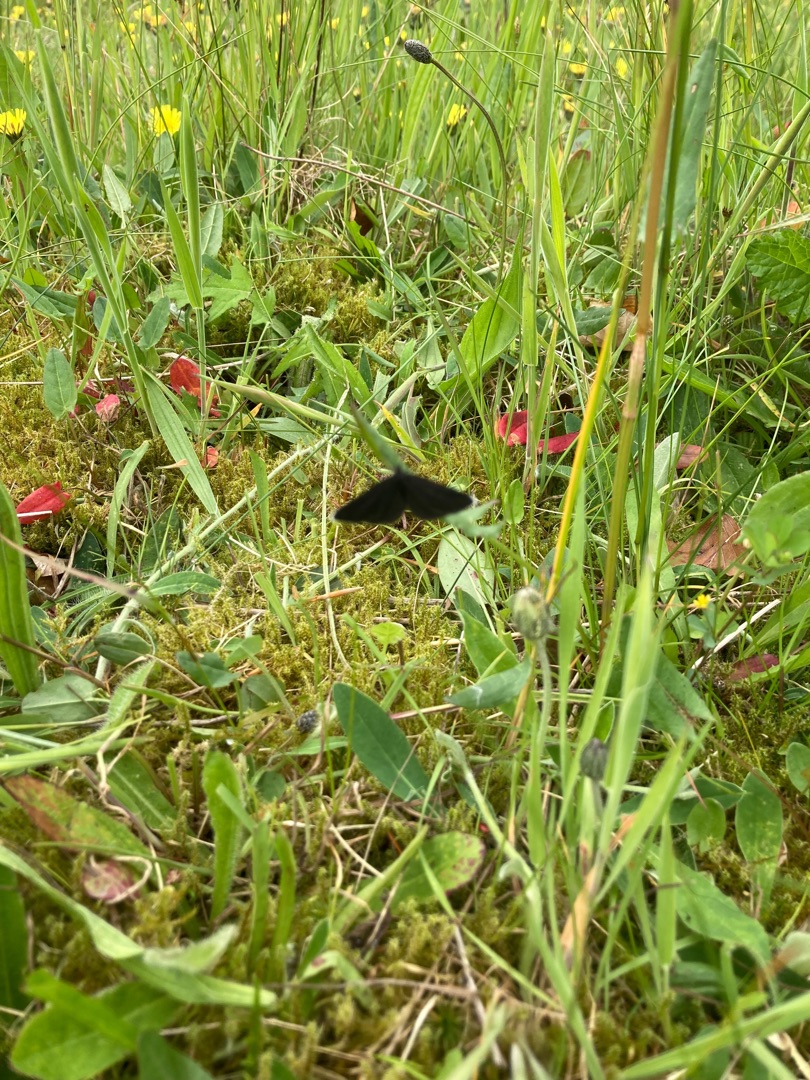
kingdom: Animalia
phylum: Arthropoda
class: Insecta
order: Lepidoptera
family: Geometridae
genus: Odezia
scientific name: Odezia atrata
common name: Sort måler
